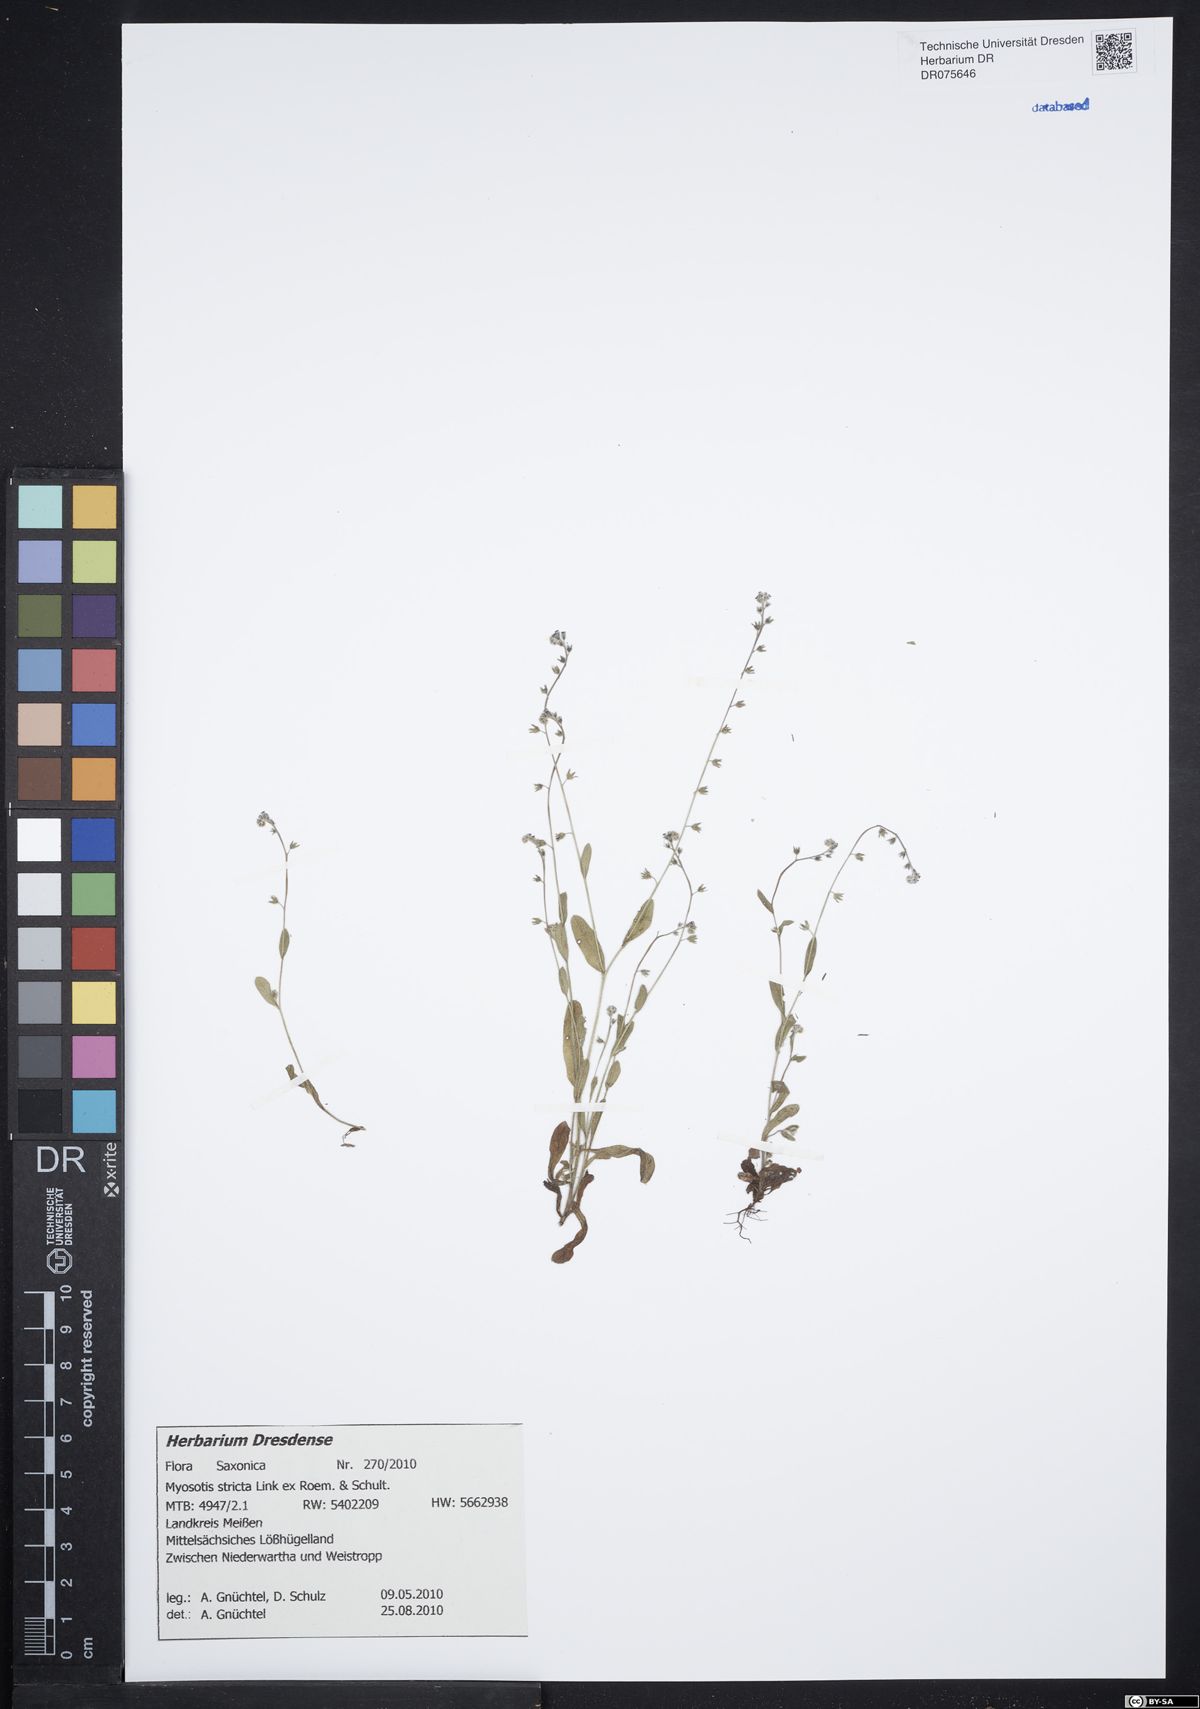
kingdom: Plantae
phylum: Tracheophyta
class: Magnoliopsida
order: Boraginales
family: Boraginaceae
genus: Myosotis
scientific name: Myosotis stricta
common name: Strict forget-me-not
